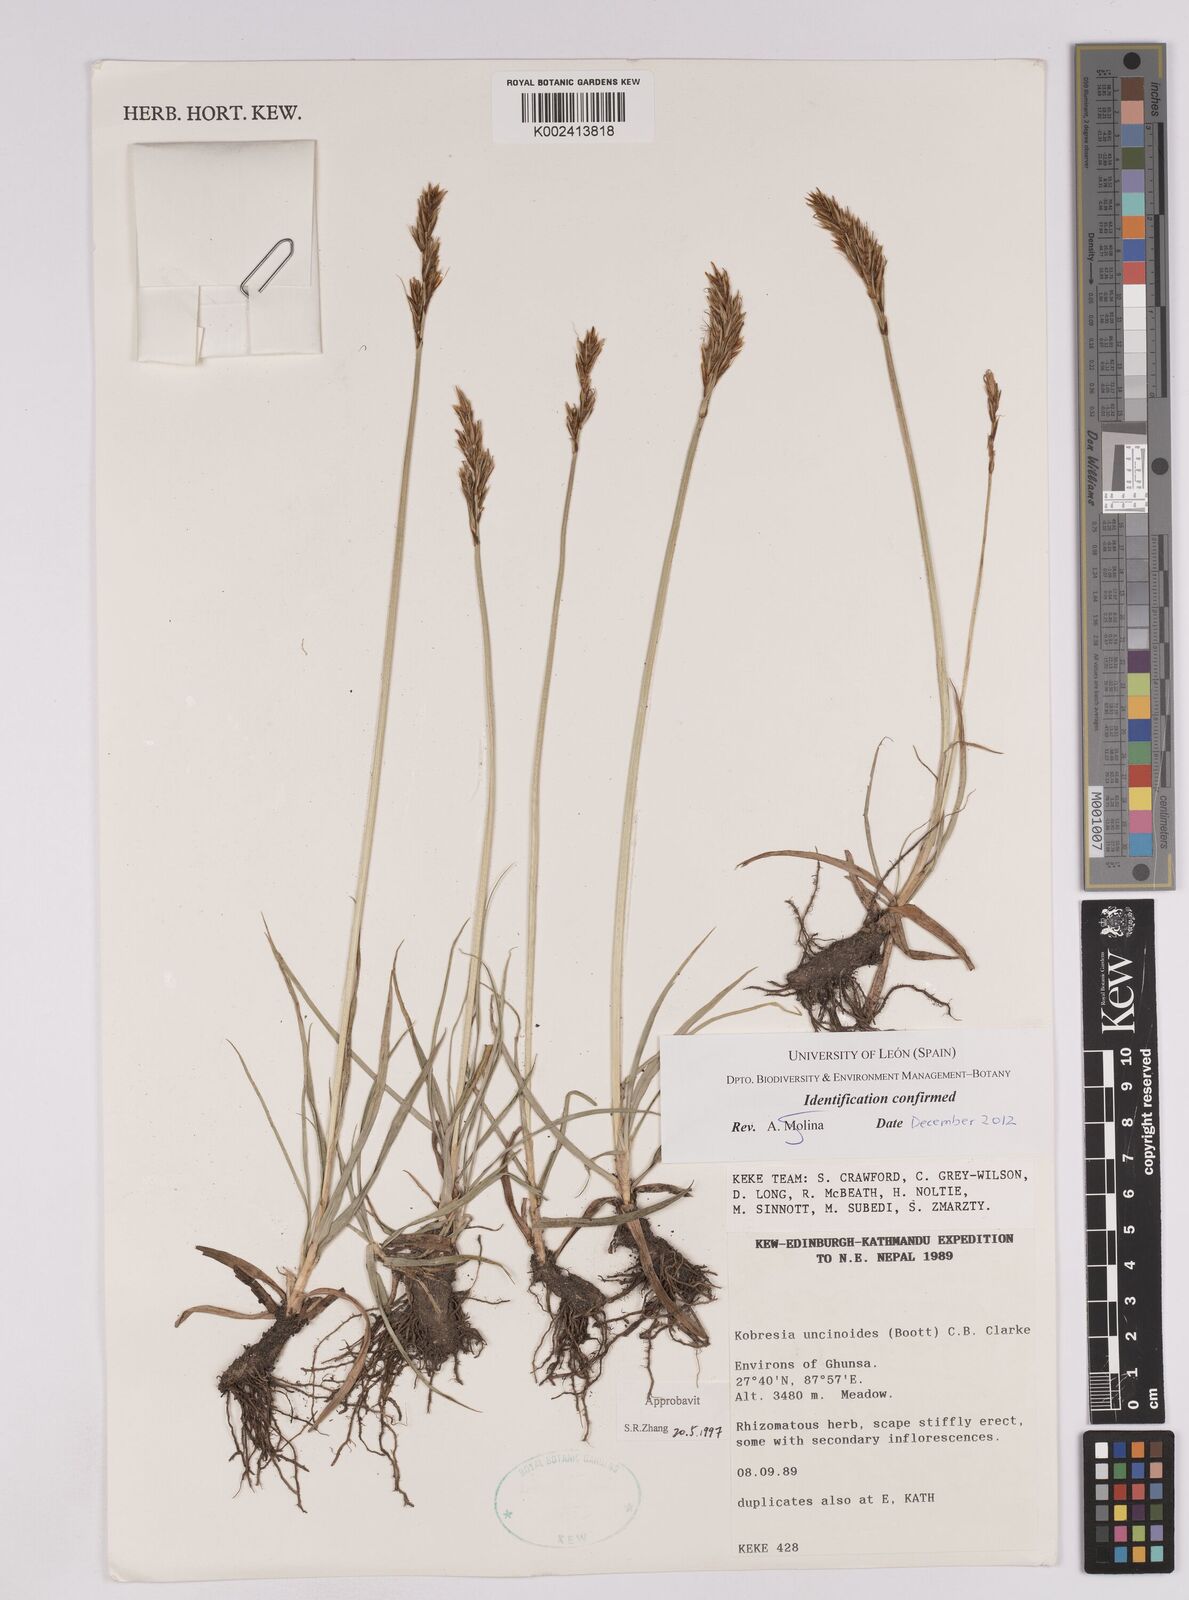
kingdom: Plantae
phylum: Tracheophyta
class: Liliopsida
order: Poales
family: Cyperaceae
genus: Carex
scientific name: Carex uncinioides
